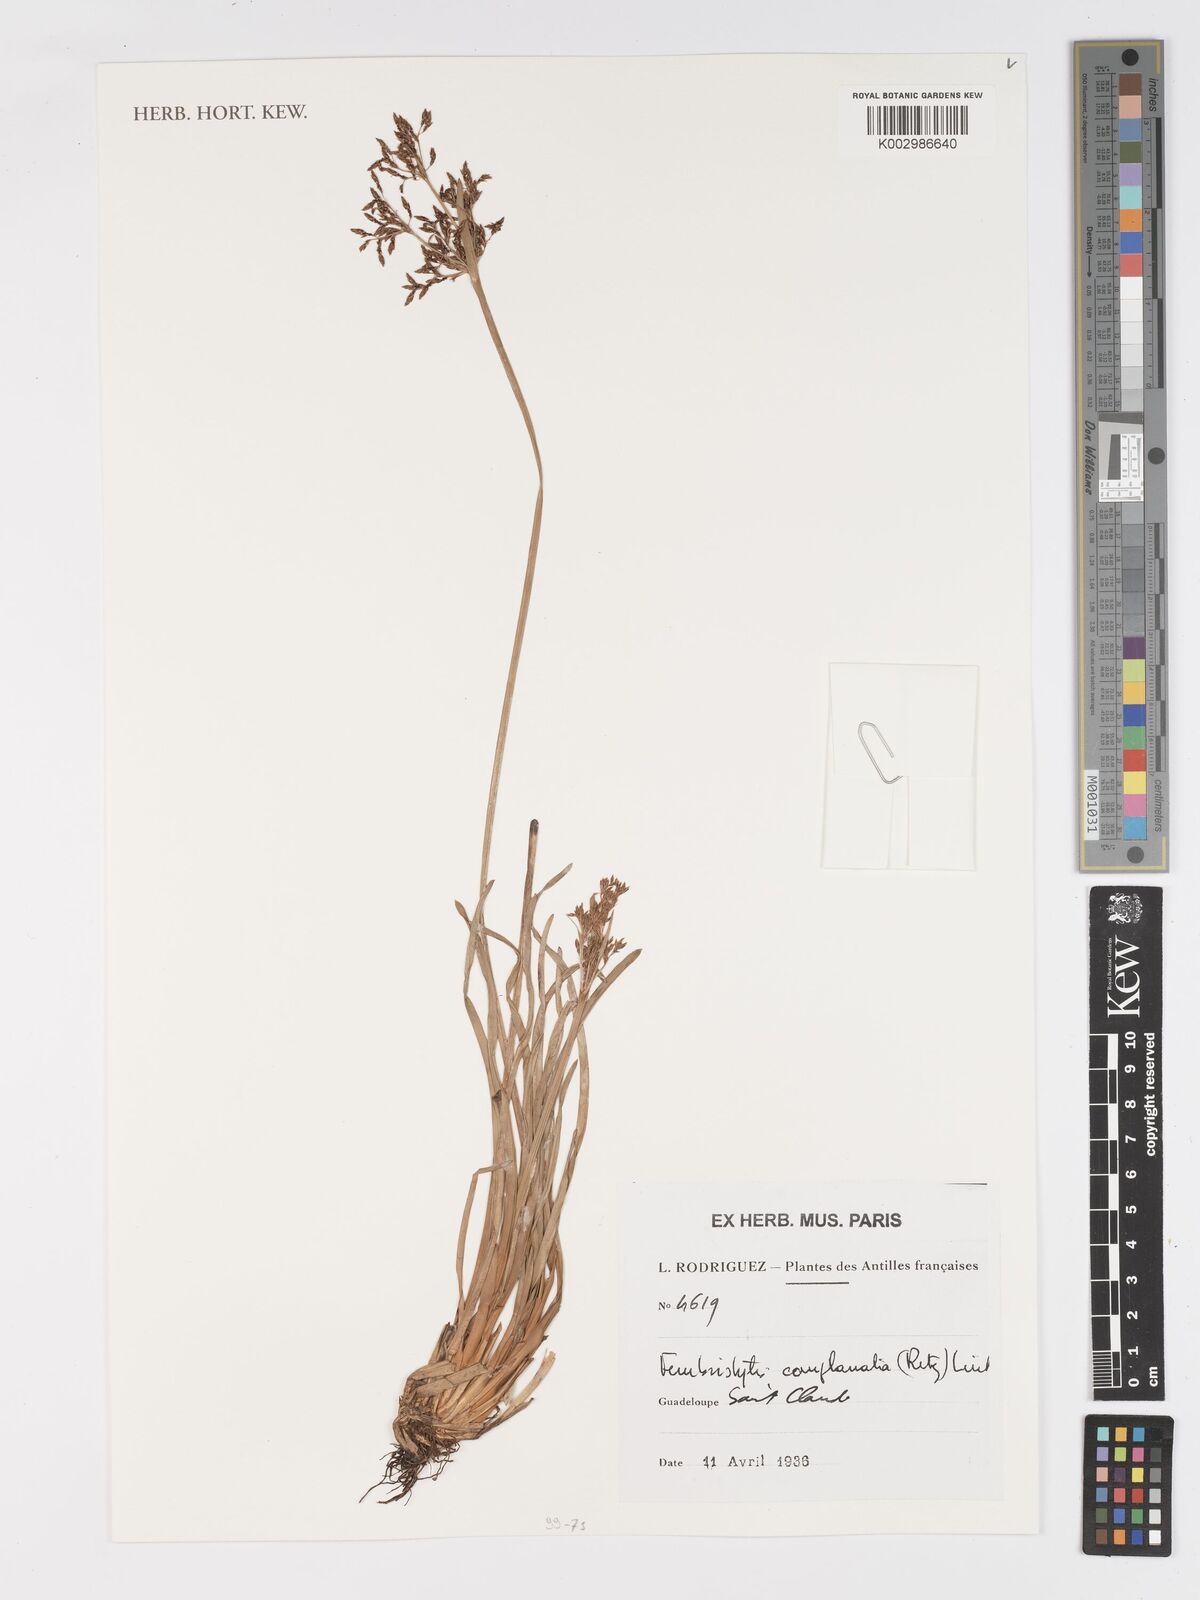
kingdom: Plantae
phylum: Tracheophyta
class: Liliopsida
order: Poales
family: Cyperaceae
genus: Fimbristylis
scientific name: Fimbristylis complanata
